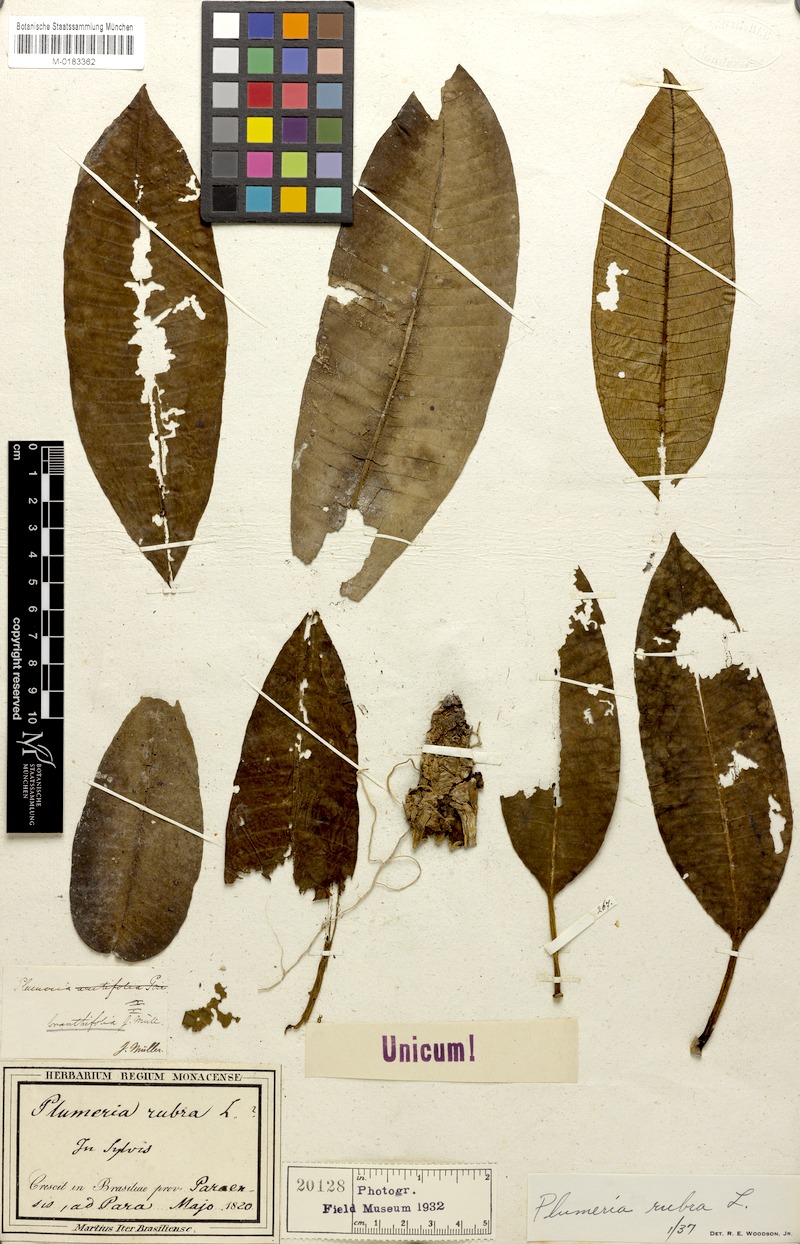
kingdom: Plantae
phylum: Tracheophyta
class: Magnoliopsida
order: Gentianales
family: Apocynaceae
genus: Plumeria
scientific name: Plumeria rubra
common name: Pagoda-tree
